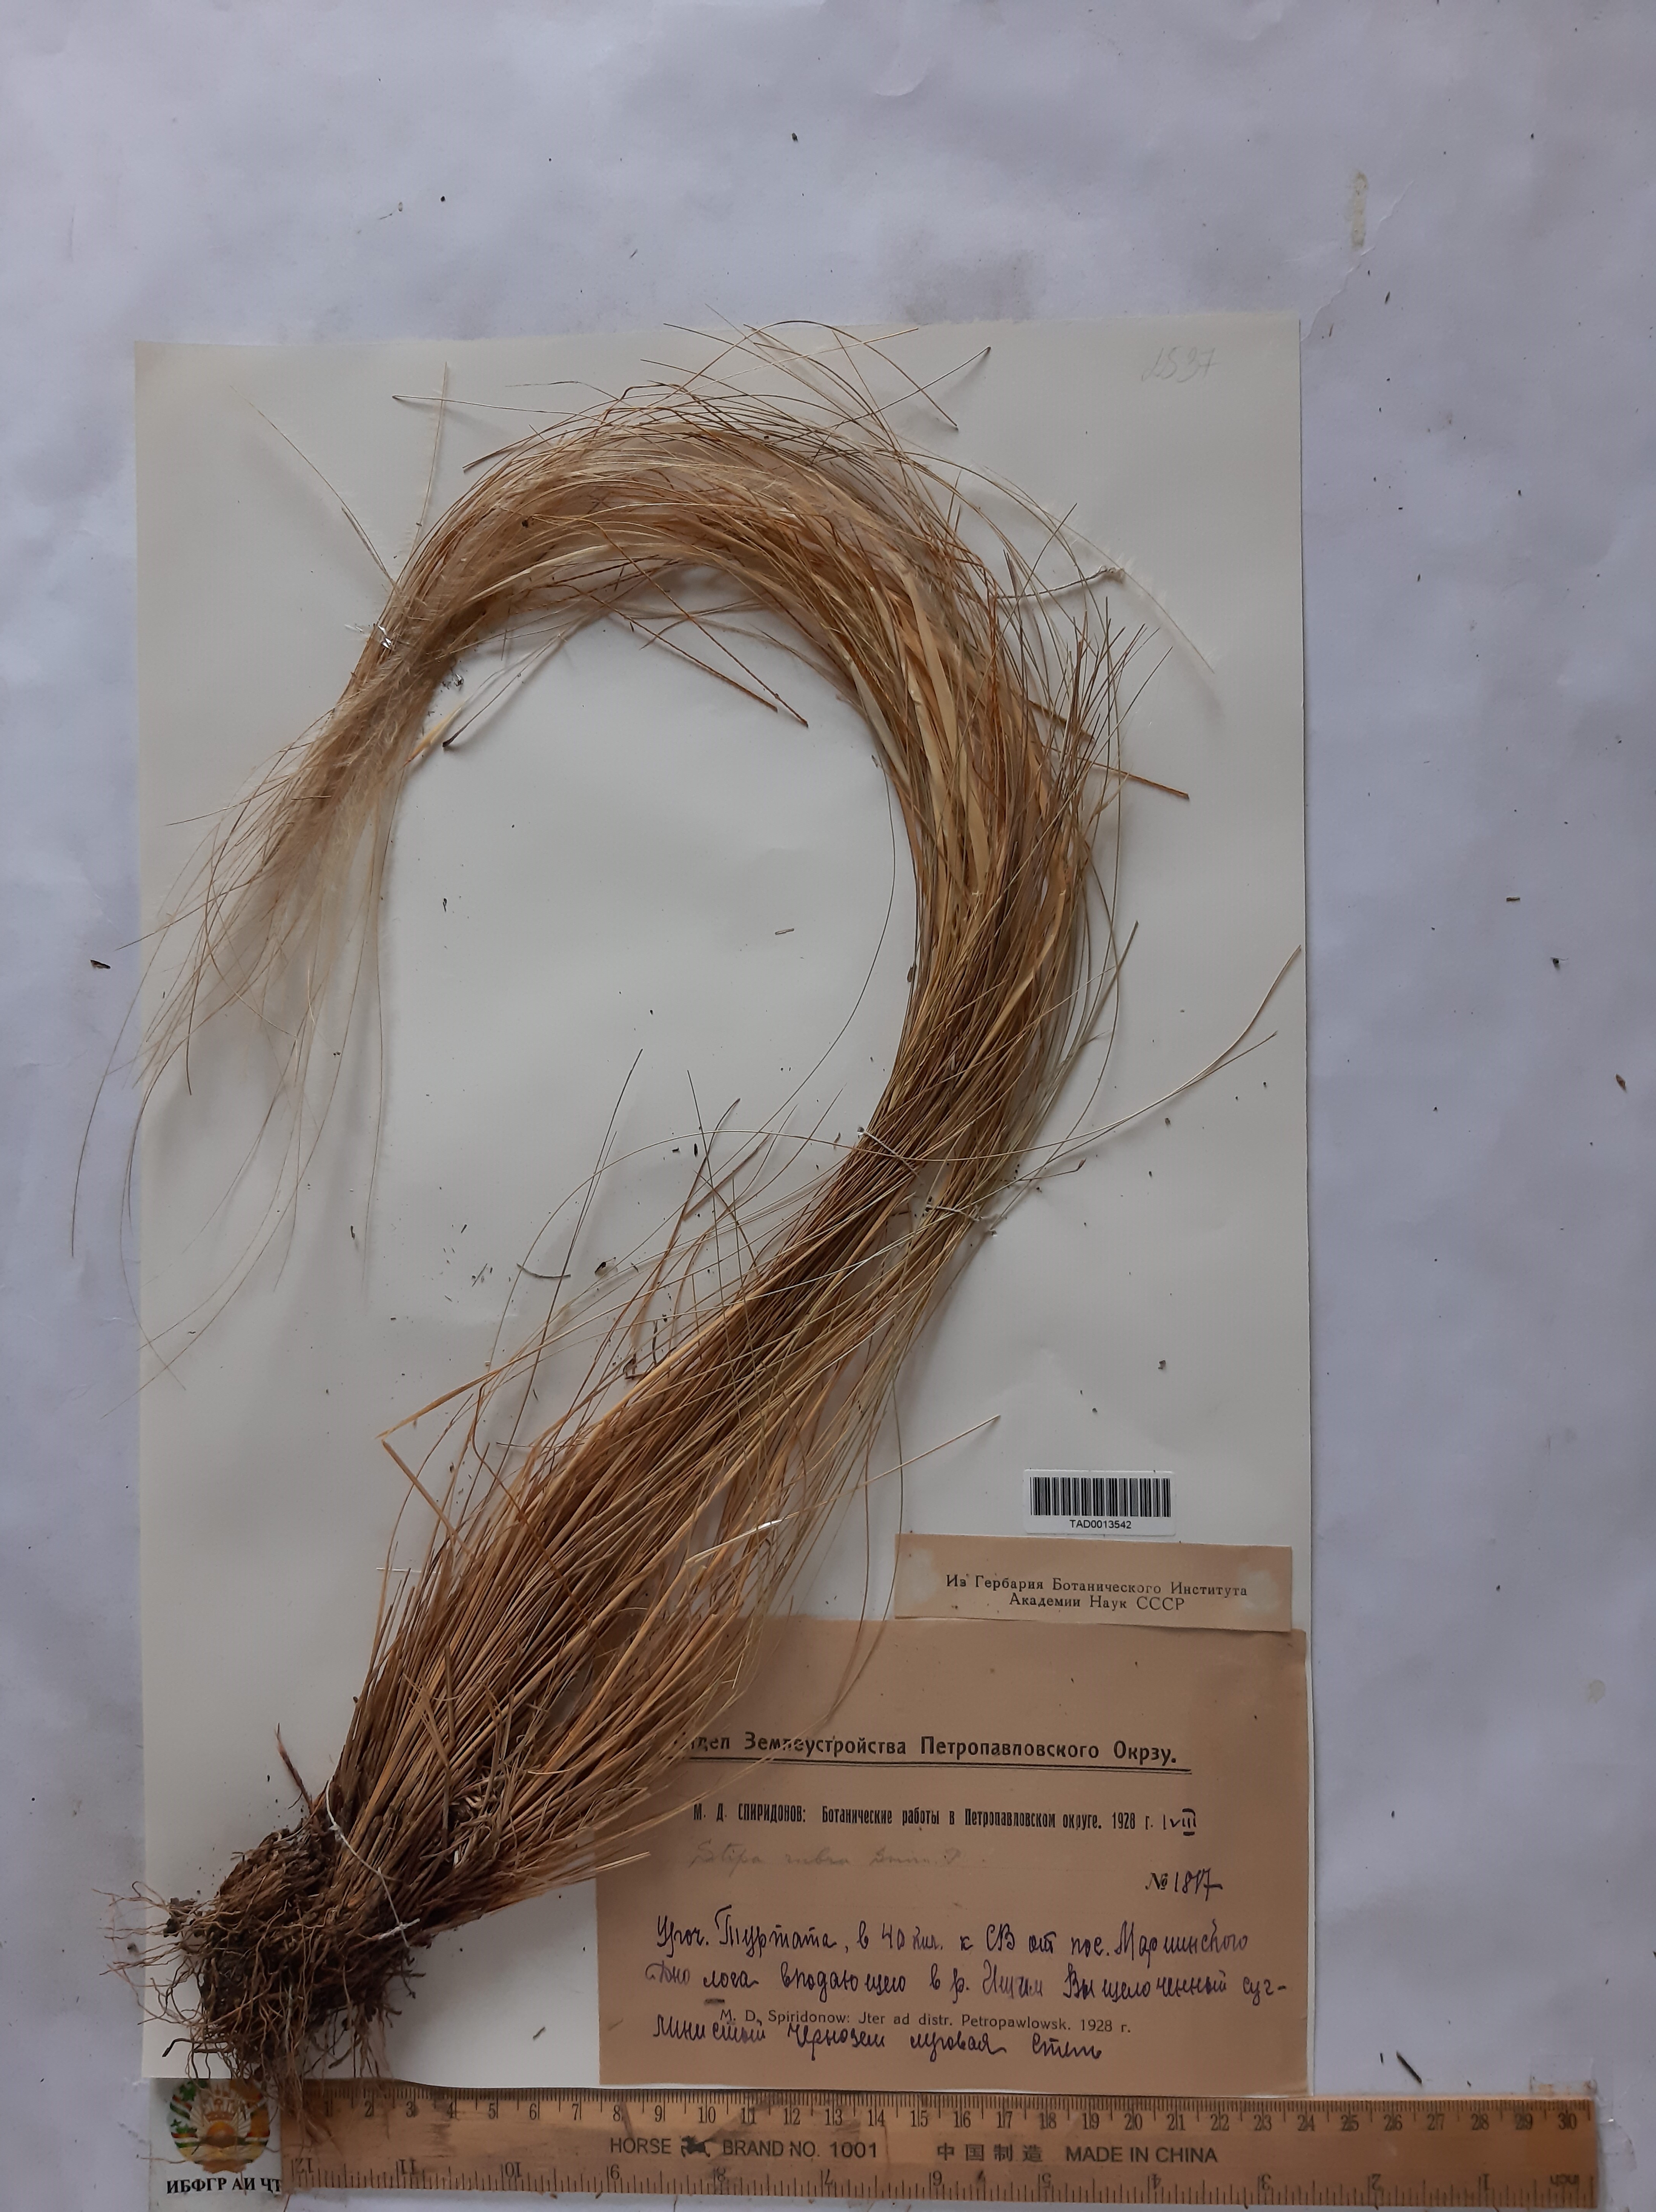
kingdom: Plantae
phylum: Tracheophyta
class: Liliopsida
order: Poales
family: Poaceae
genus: Stipa
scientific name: Stipa zalesskii
